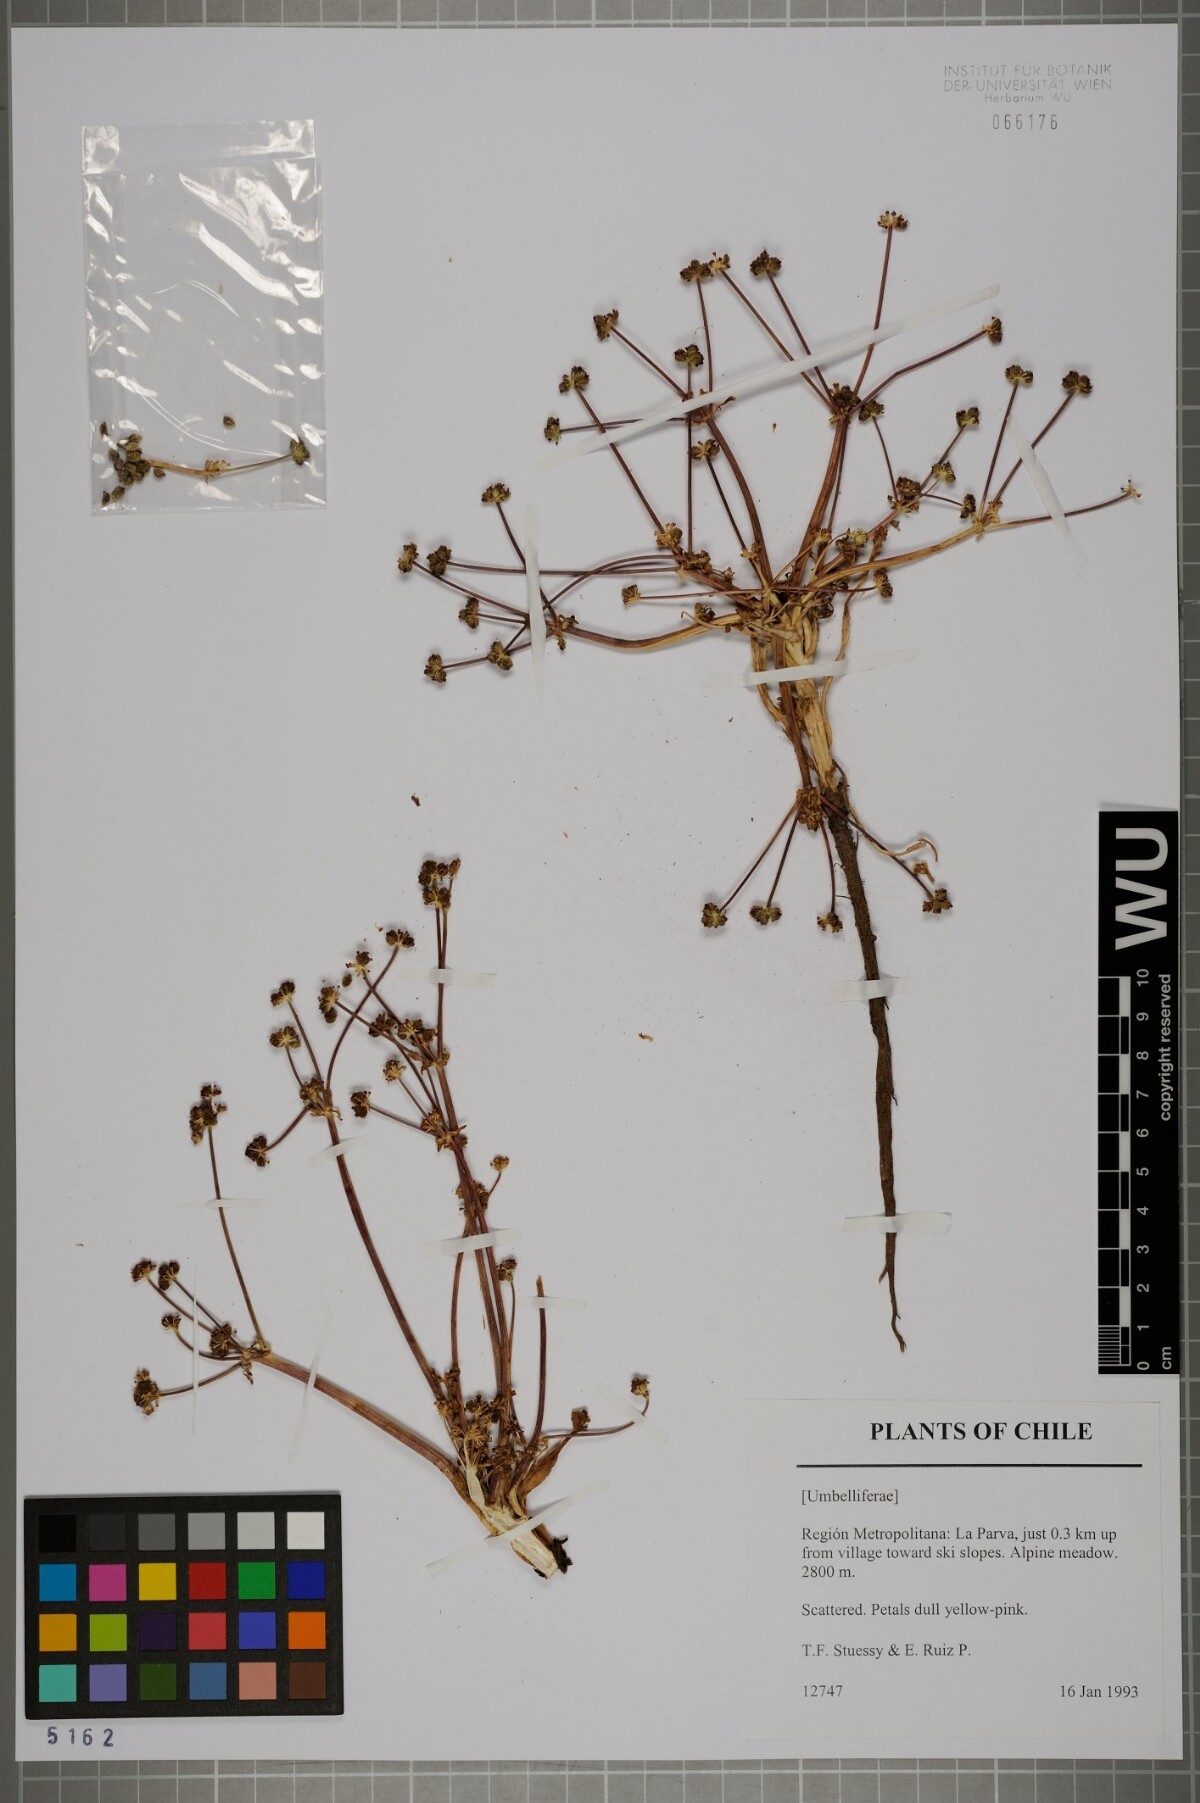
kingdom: Plantae
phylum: Tracheophyta
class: Magnoliopsida
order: Apiales
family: Apiaceae
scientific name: Apiaceae
